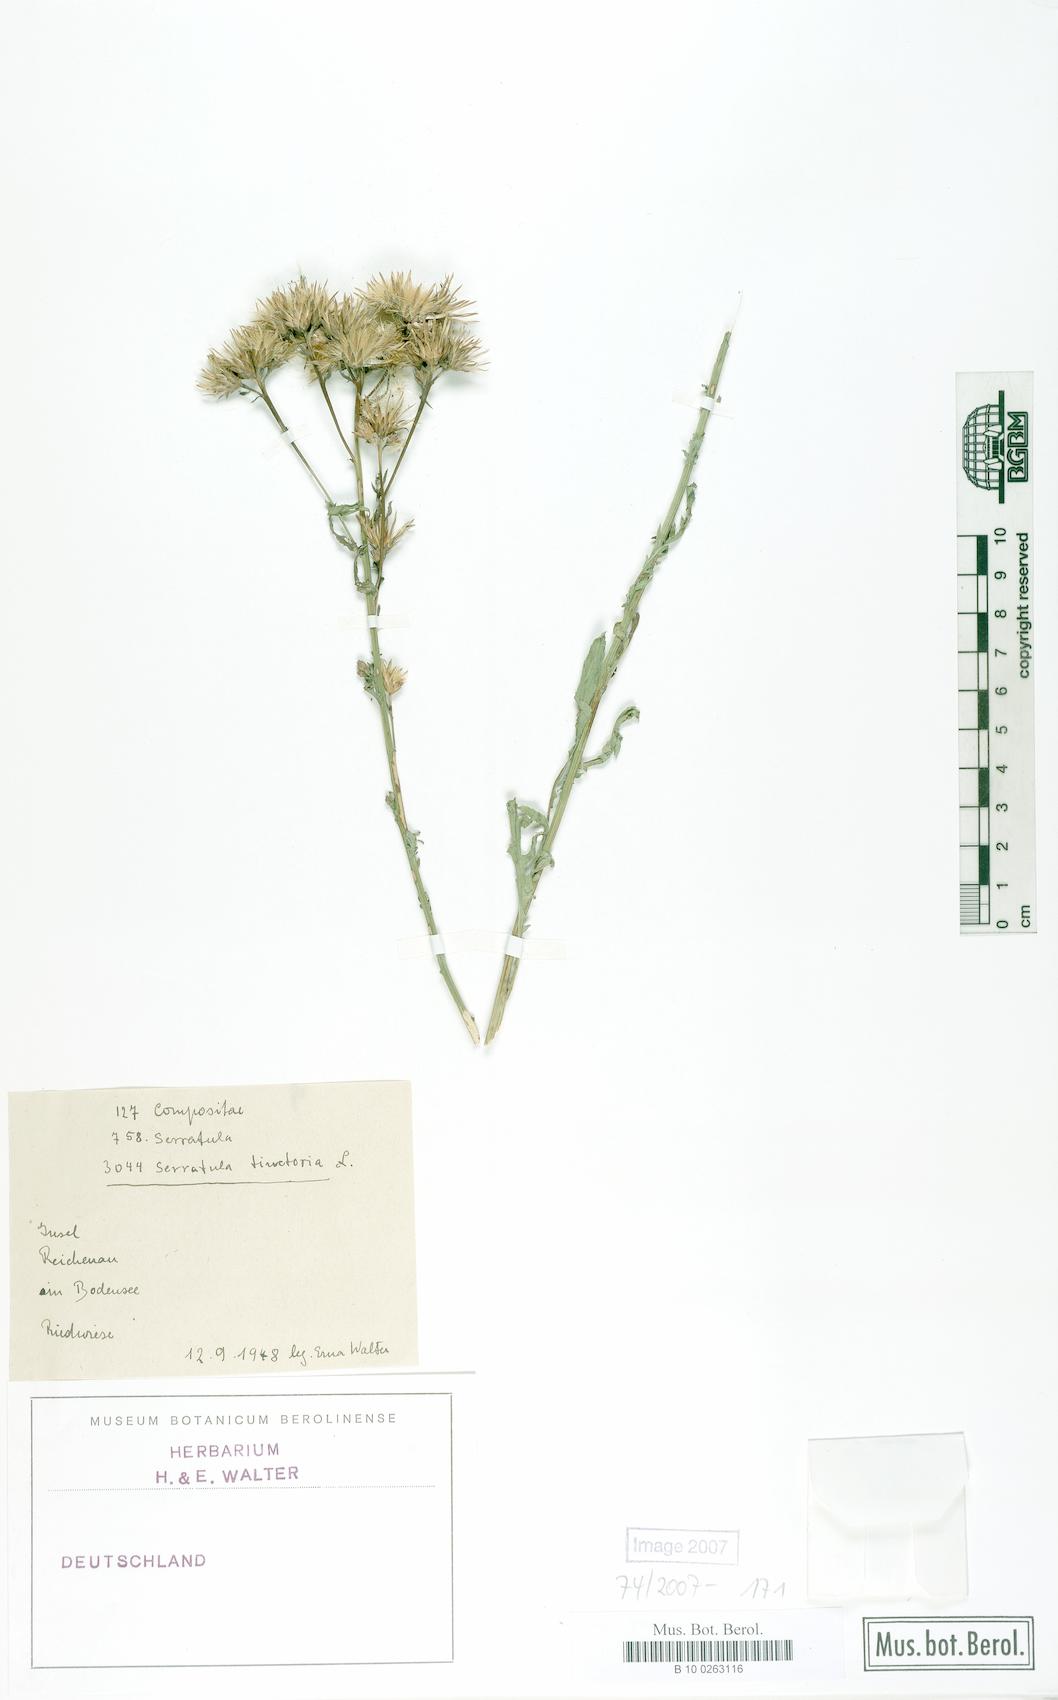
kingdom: Plantae
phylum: Tracheophyta
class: Magnoliopsida
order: Asterales
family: Asteraceae
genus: Serratula
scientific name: Serratula tinctoria
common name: Saw-wort
